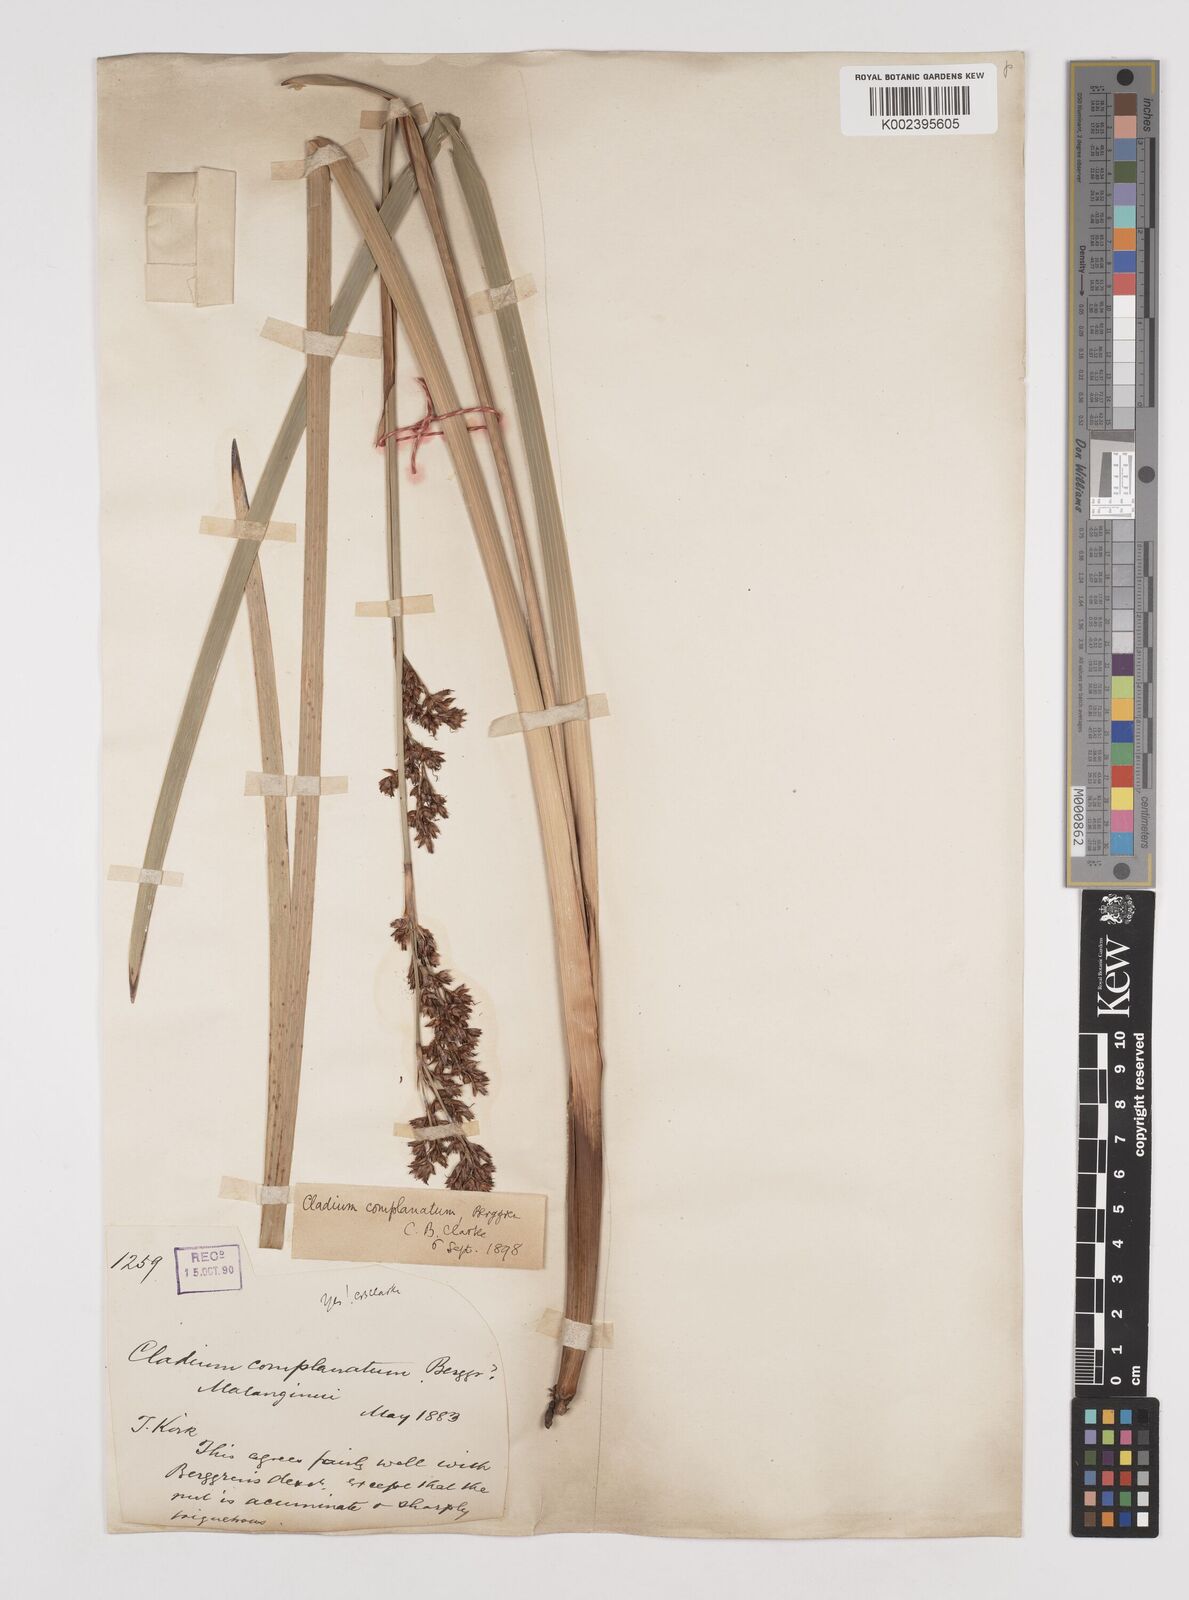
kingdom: Plantae
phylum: Tracheophyta
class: Liliopsida
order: Poales
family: Cyperaceae
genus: Machaerina
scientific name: Machaerina complanata
